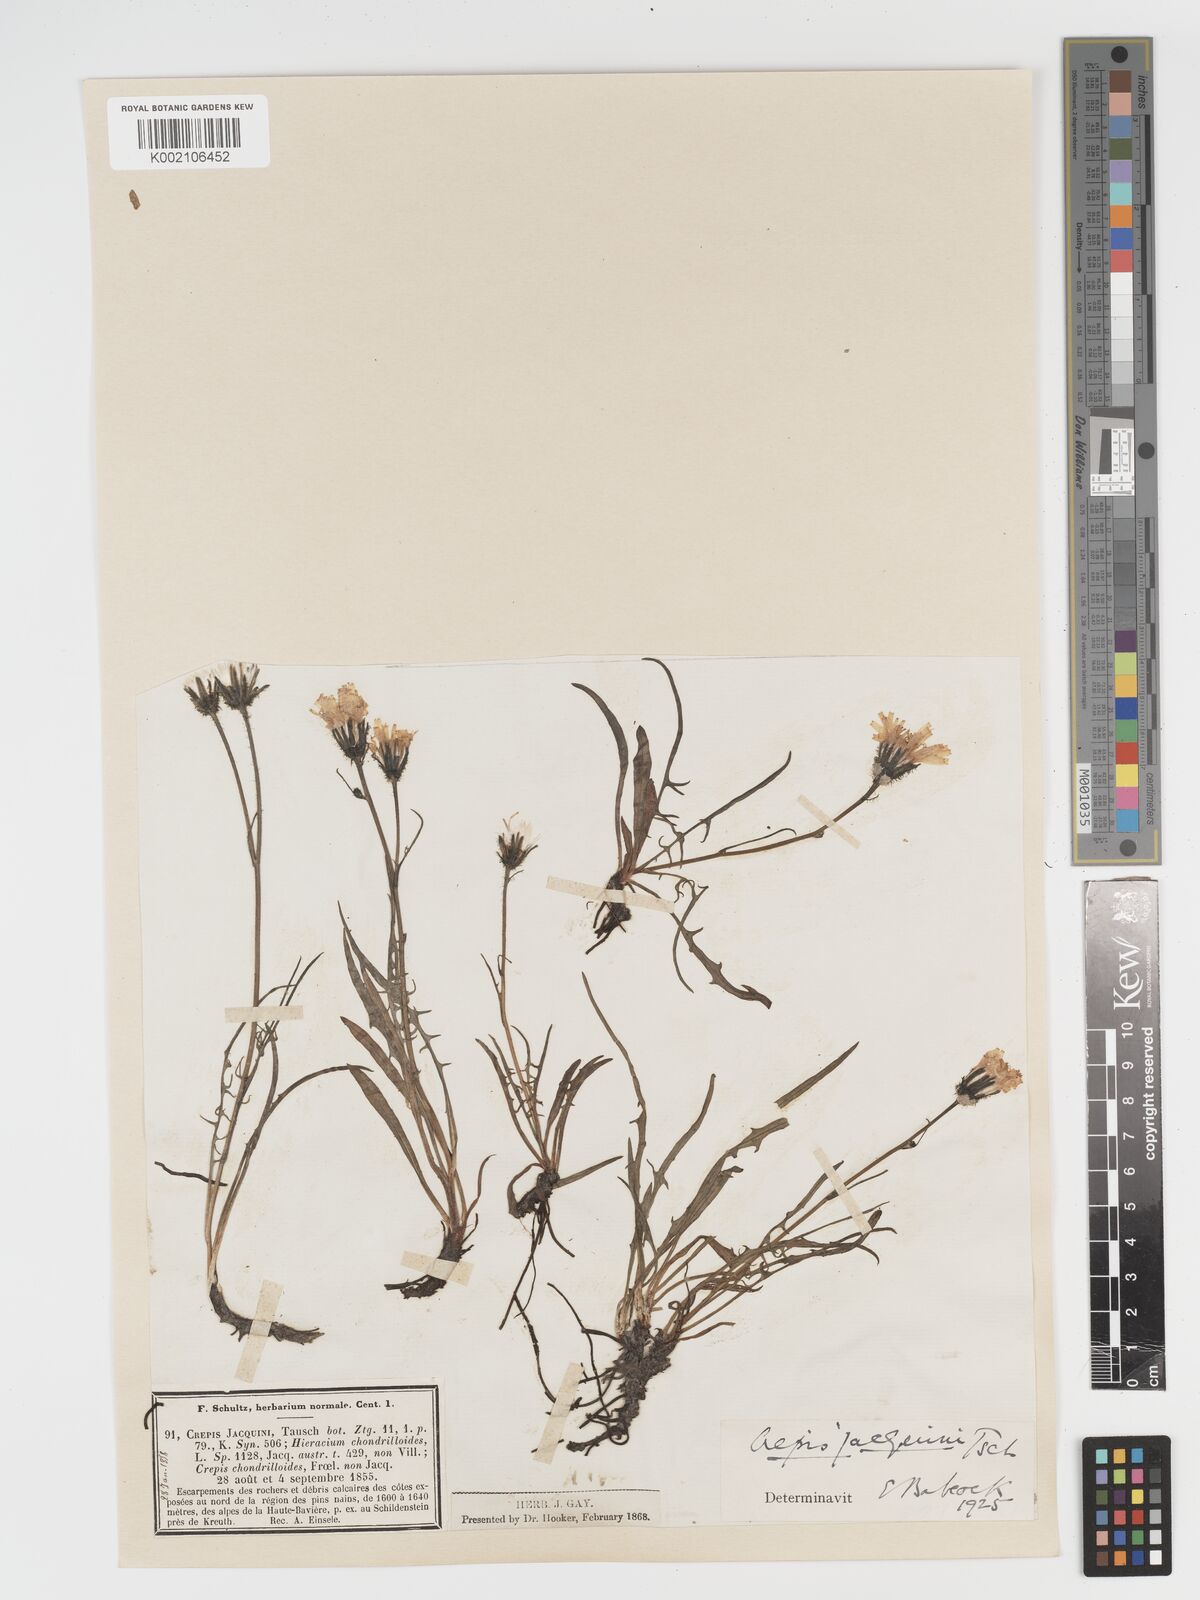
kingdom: Plantae
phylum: Tracheophyta
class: Magnoliopsida
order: Asterales
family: Asteraceae
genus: Crepis
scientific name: Crepis jacquinii
